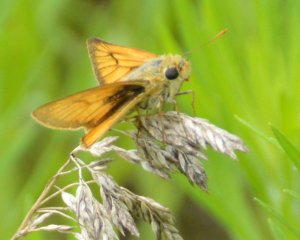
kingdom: Animalia
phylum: Arthropoda
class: Insecta
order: Lepidoptera
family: Hesperiidae
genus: Atrytone
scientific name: Atrytone delaware
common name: Delaware Skipper
